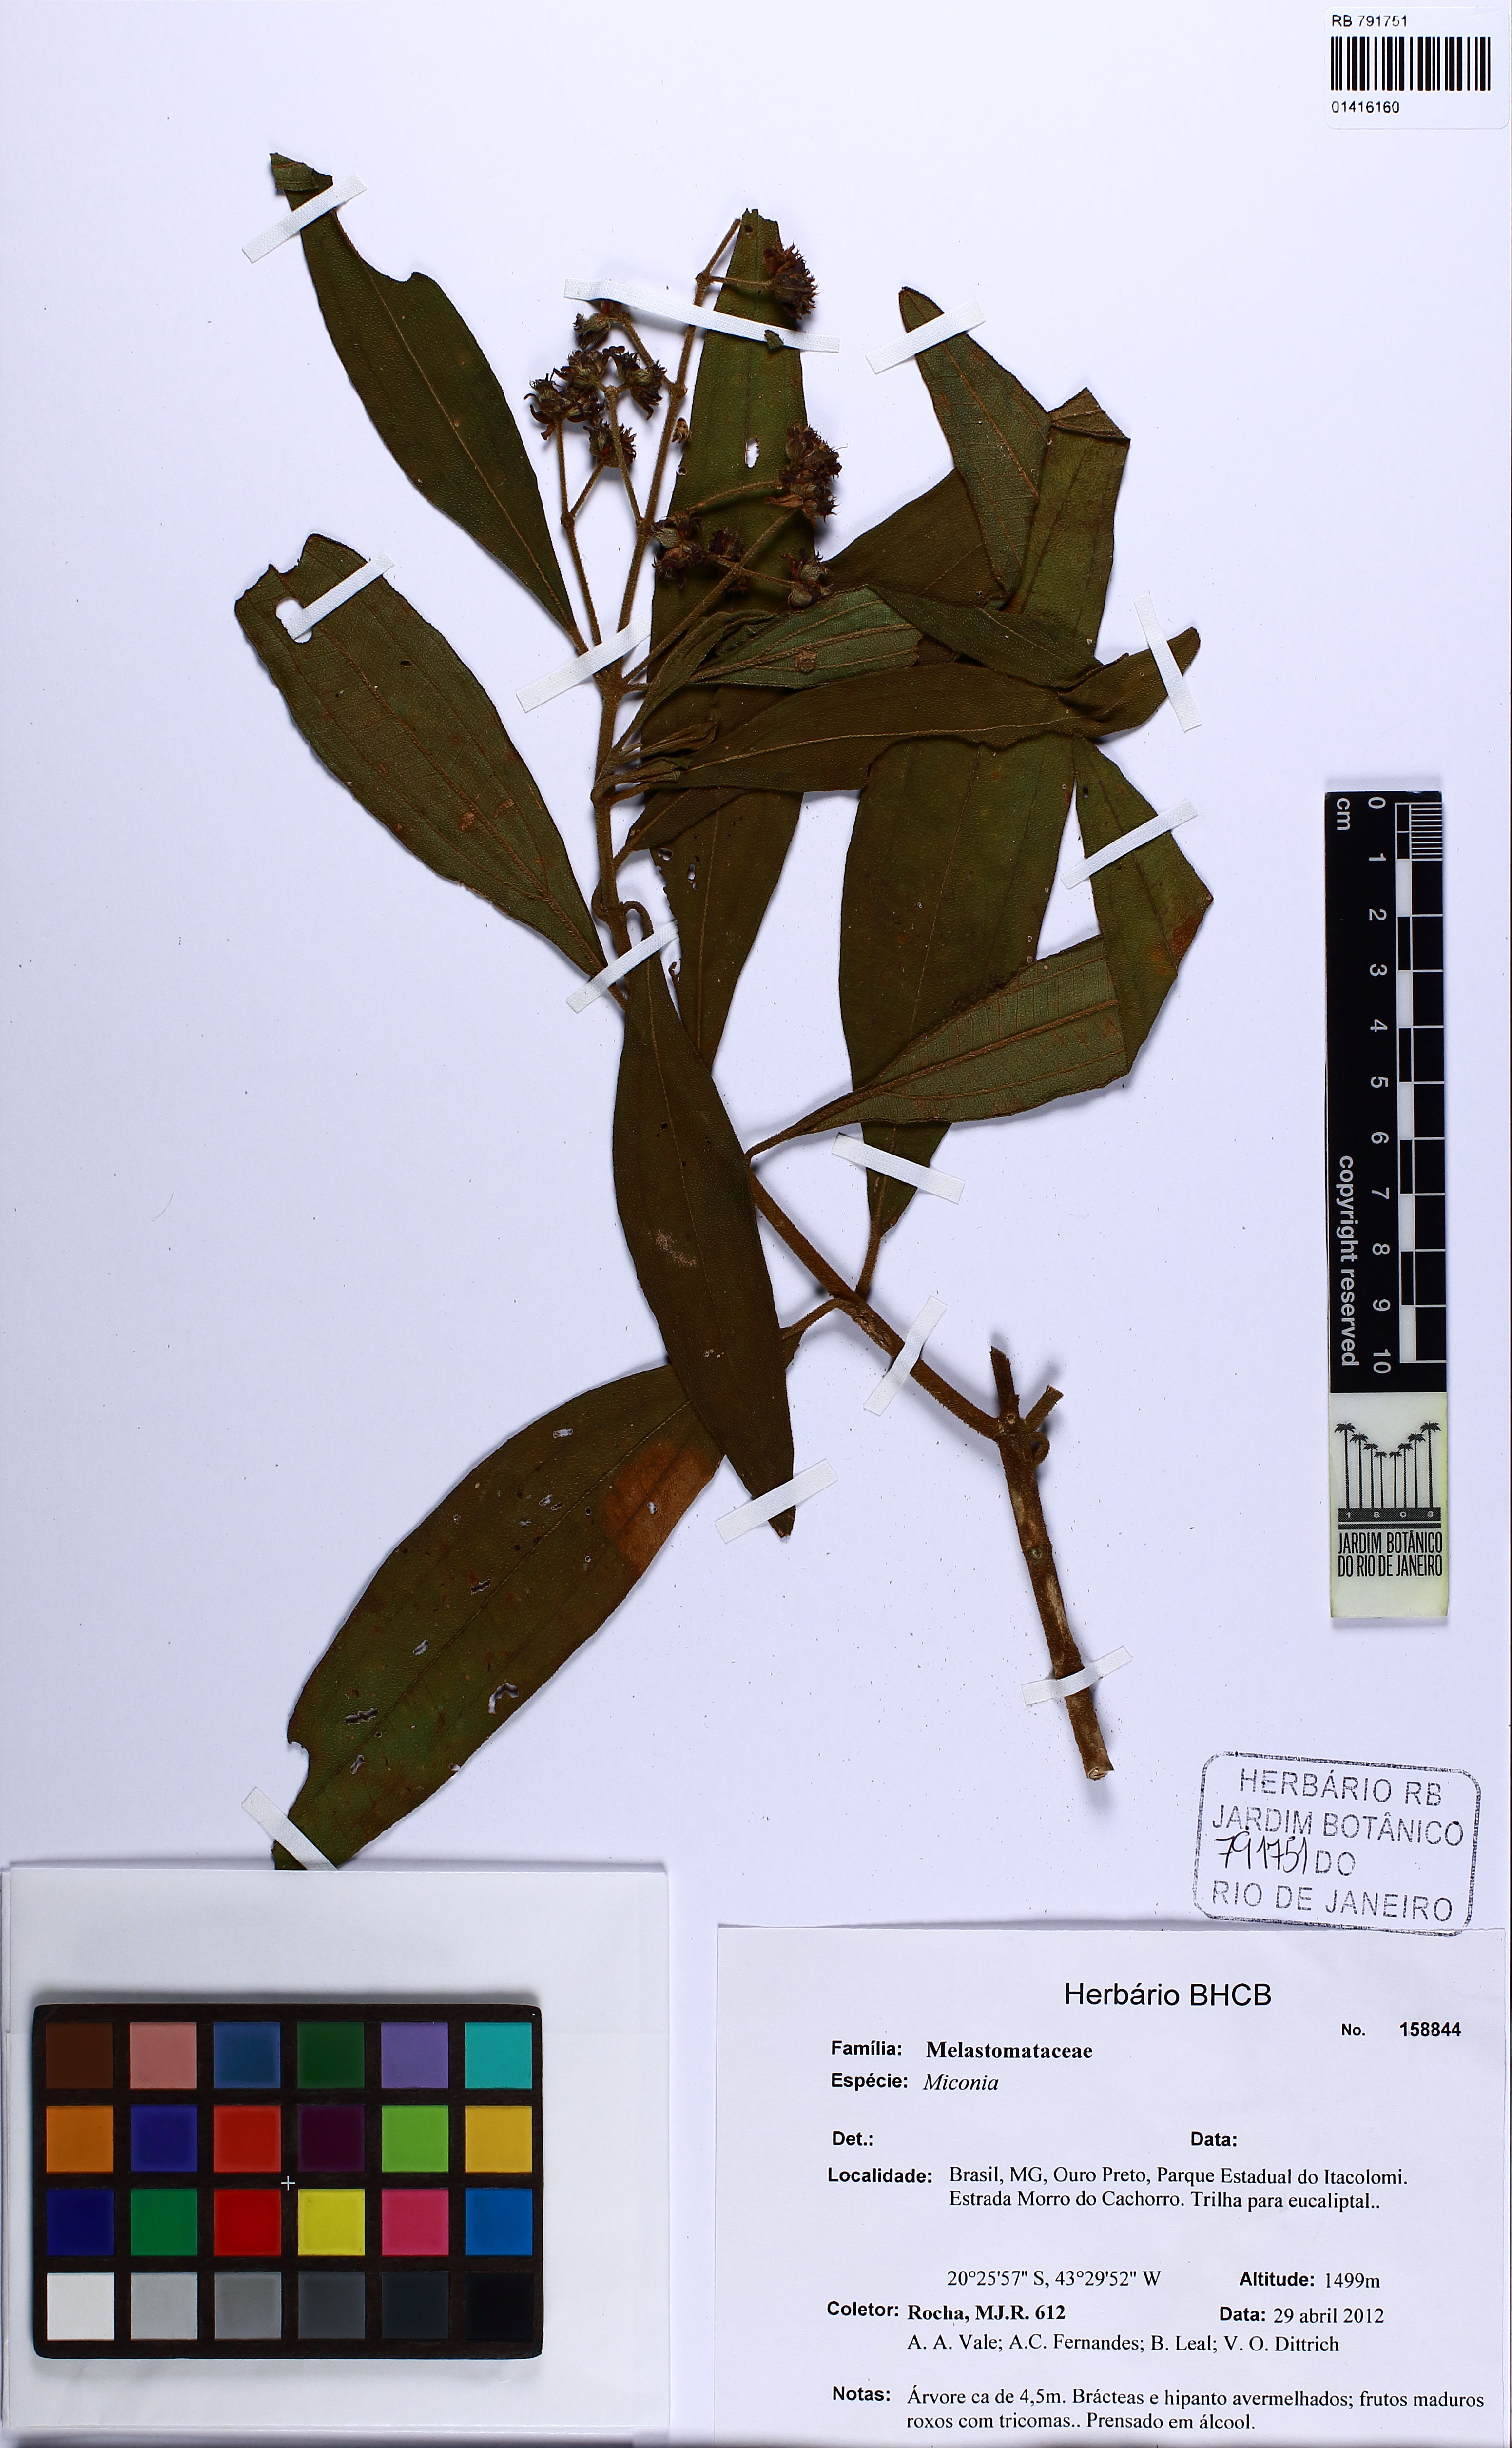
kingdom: Plantae
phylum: Tracheophyta
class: Magnoliopsida
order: Myrtales
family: Melastomataceae
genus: Miconia
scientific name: Miconia
